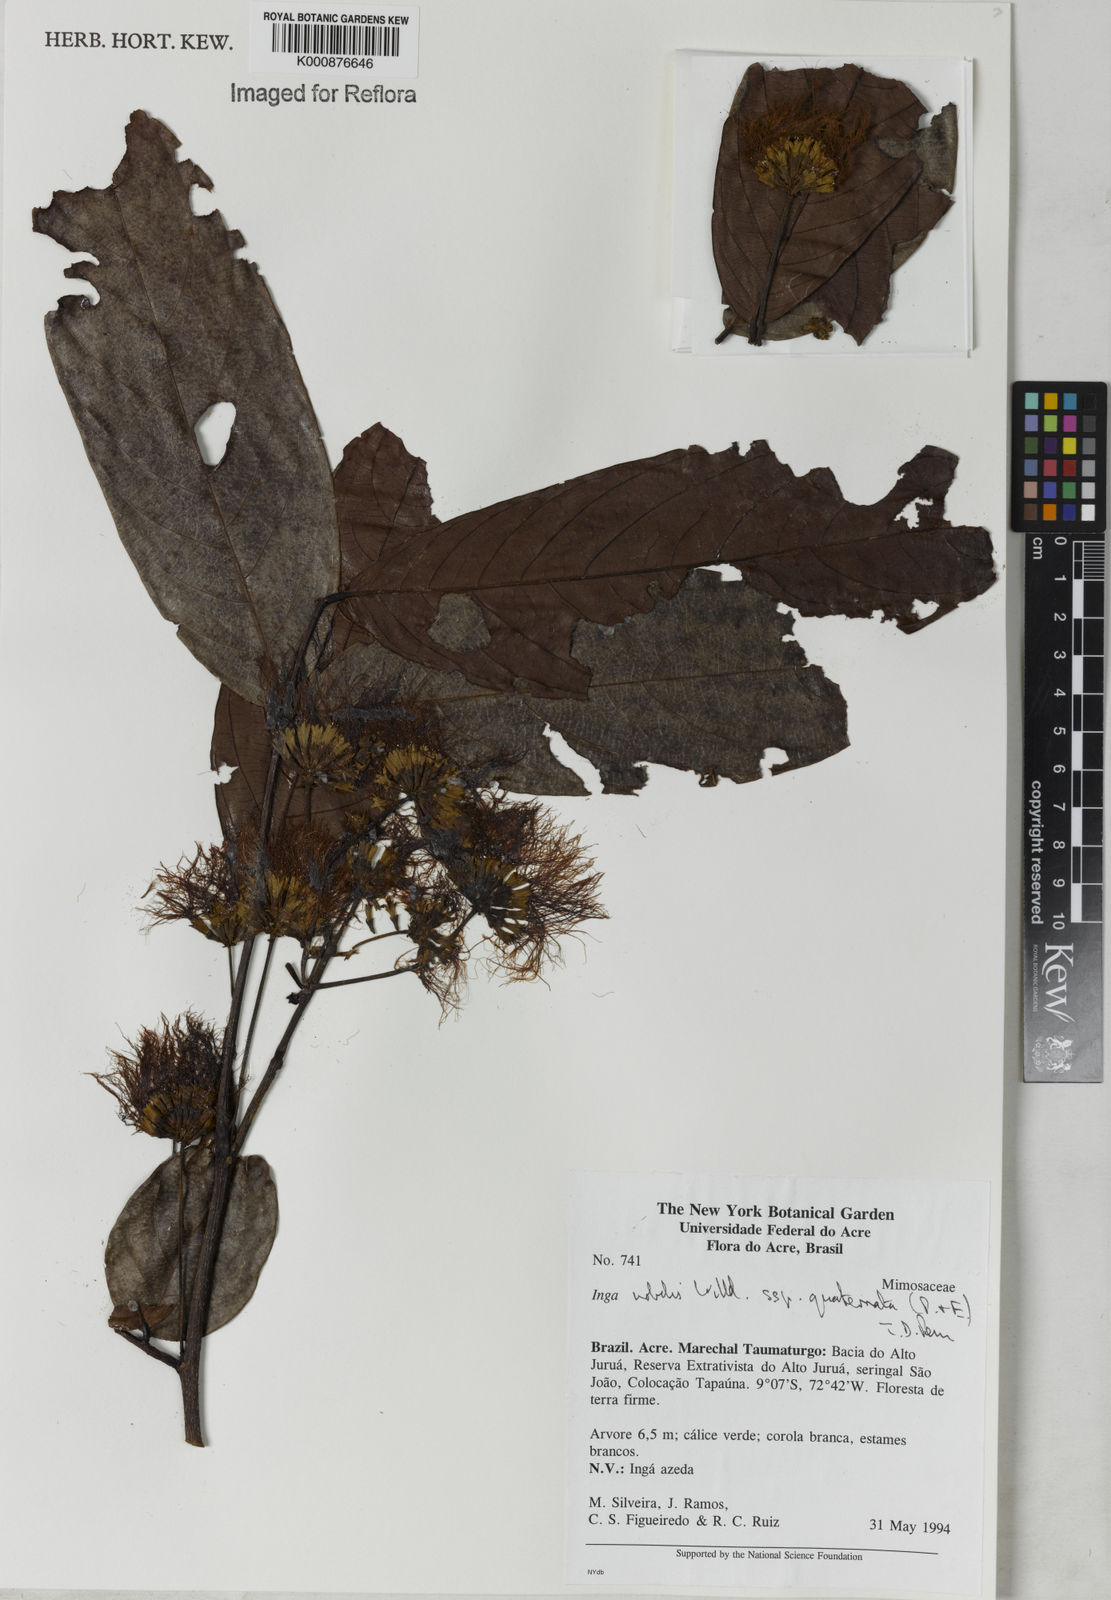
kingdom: Plantae
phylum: Tracheophyta
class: Magnoliopsida
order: Fabales
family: Fabaceae
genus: Inga
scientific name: Inga nobilis
